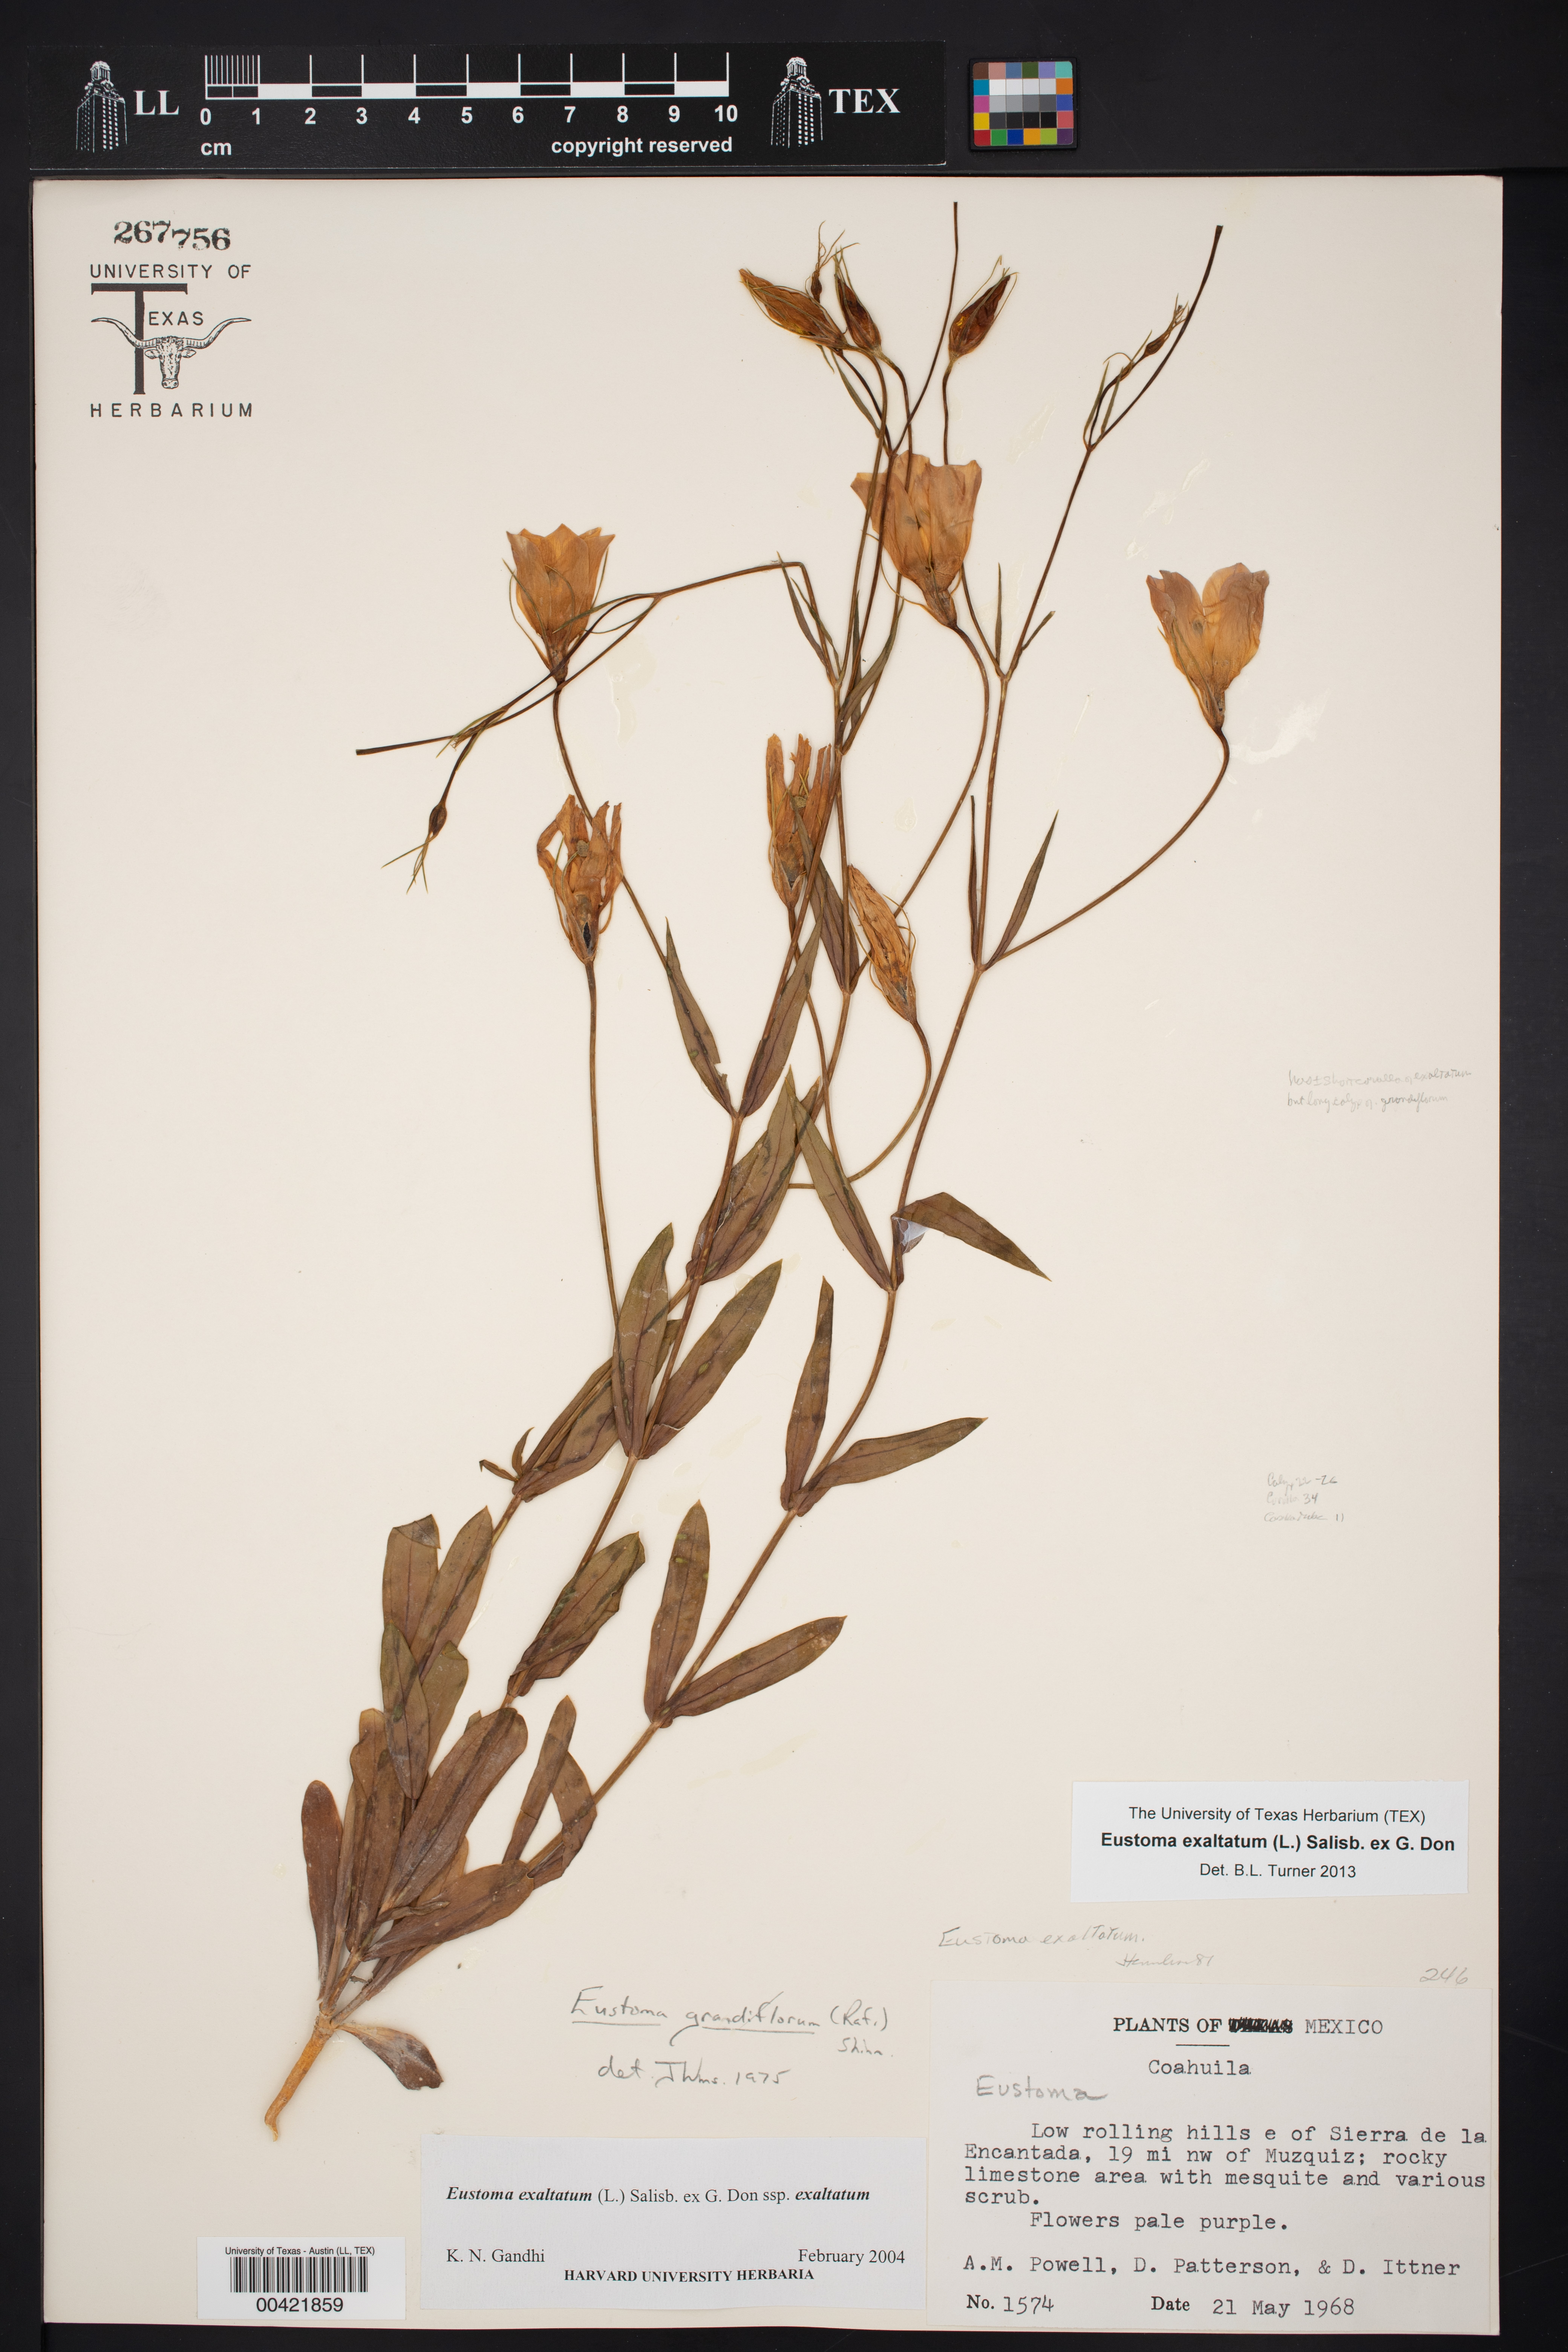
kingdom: Plantae
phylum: Tracheophyta
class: Magnoliopsida
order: Gentianales
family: Gentianaceae
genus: Eustoma
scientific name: Eustoma exaltatum
